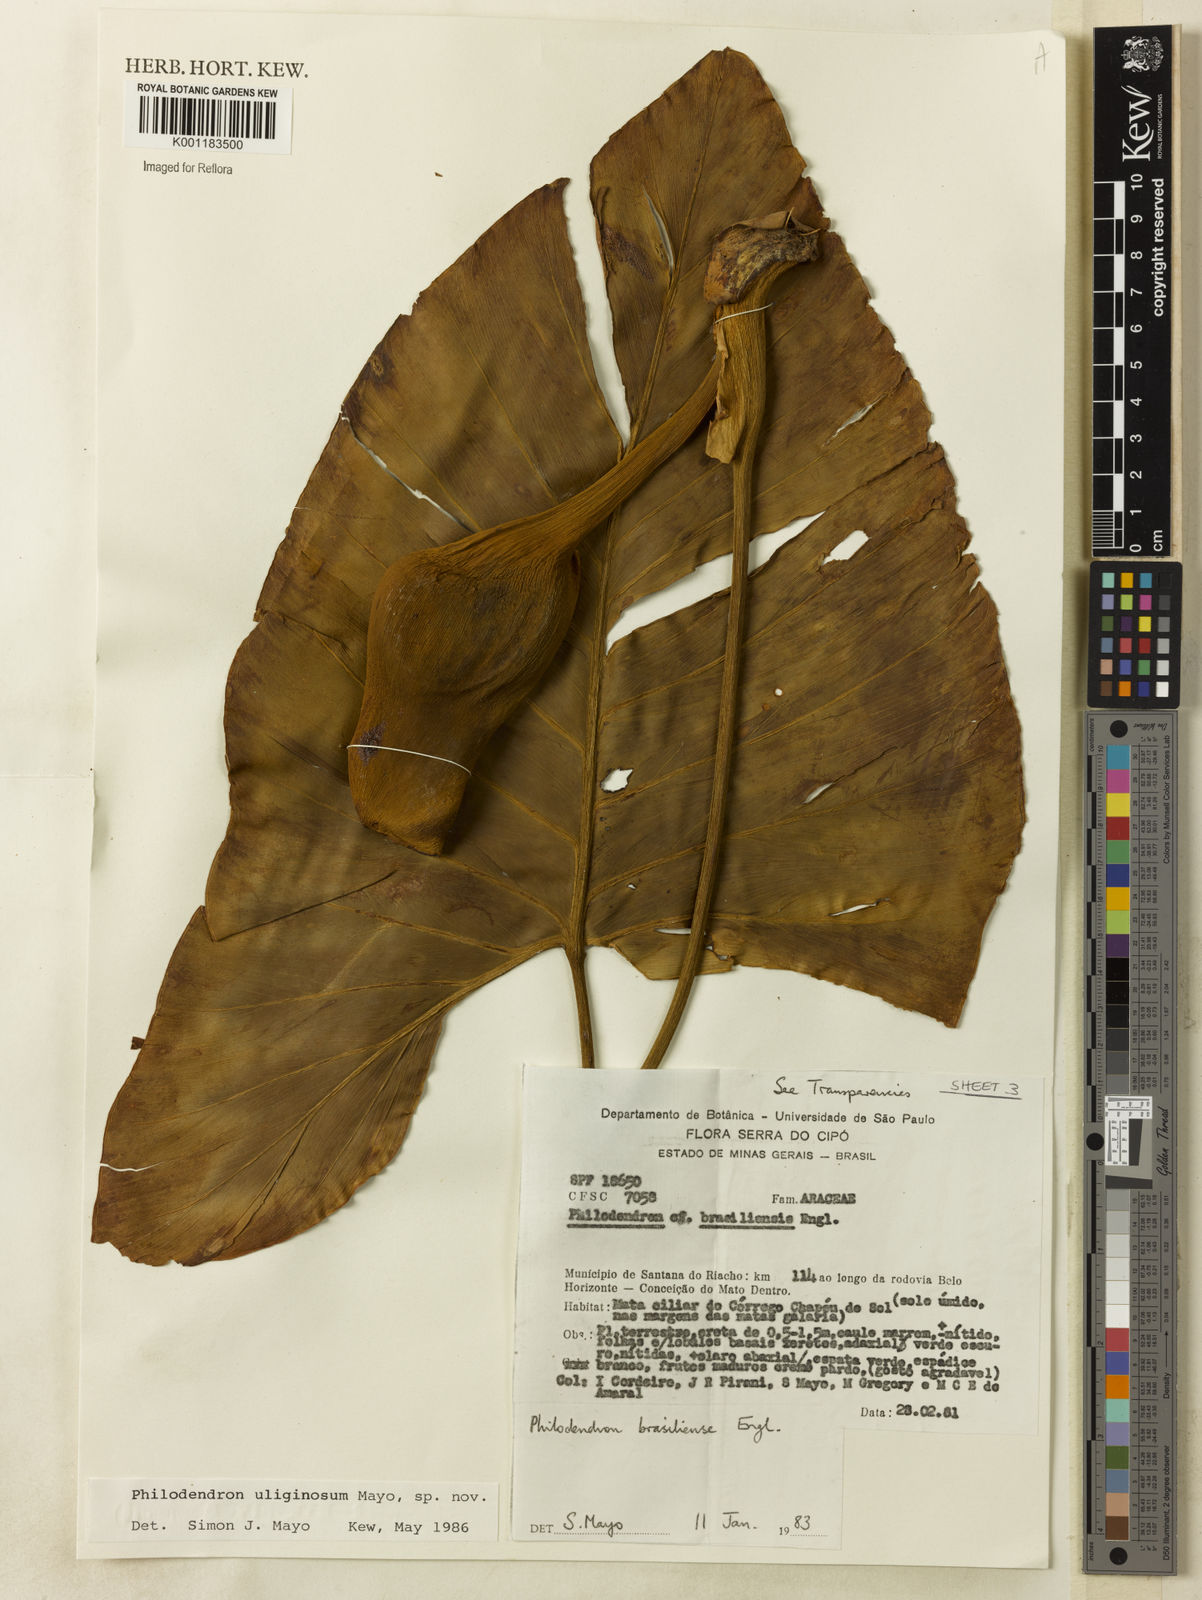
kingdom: Plantae
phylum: Tracheophyta
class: Liliopsida
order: Alismatales
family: Araceae
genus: Thaumatophyllum
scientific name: Thaumatophyllum uliginosum
